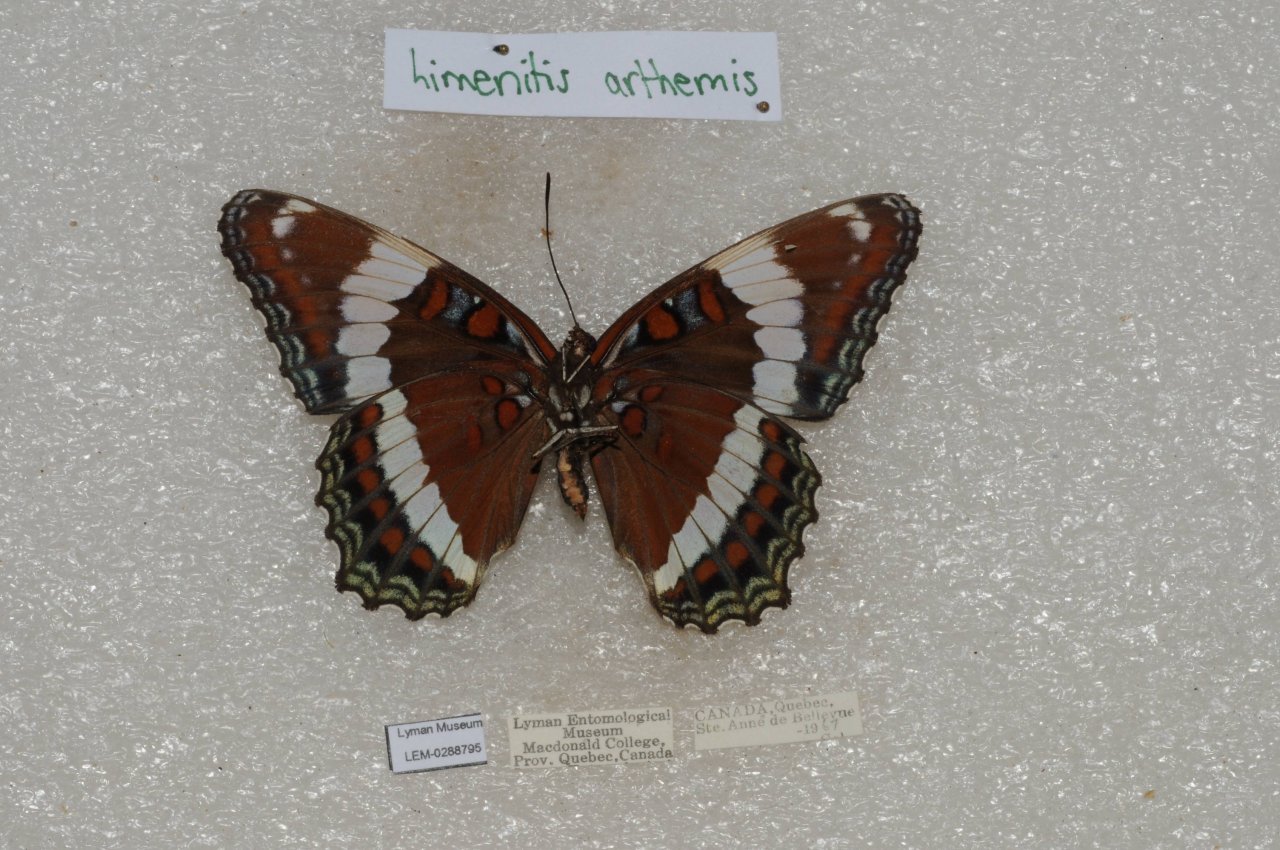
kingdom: Animalia
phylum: Arthropoda
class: Insecta
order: Lepidoptera
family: Nymphalidae
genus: Limenitis
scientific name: Limenitis arthemis
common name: Red-spotted Admiral
